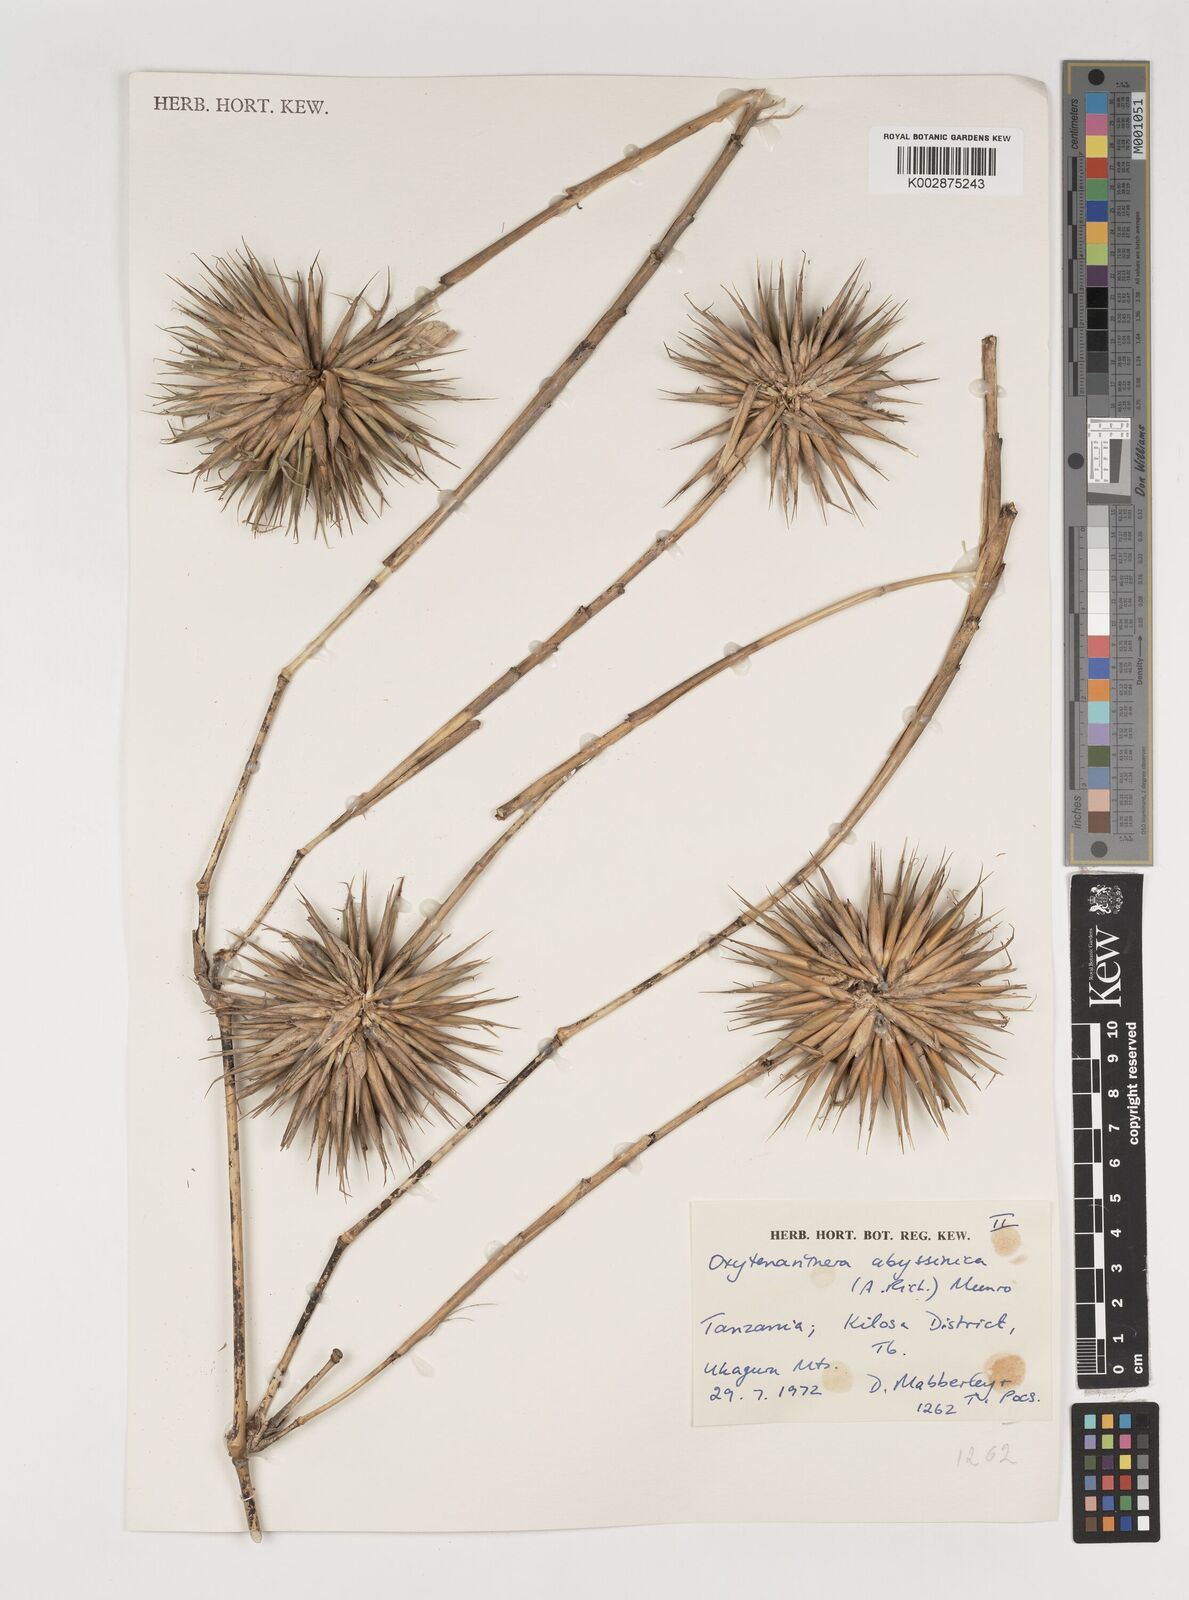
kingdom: Plantae
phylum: Tracheophyta
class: Liliopsida
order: Poales
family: Poaceae
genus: Oxytenanthera
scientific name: Oxytenanthera
